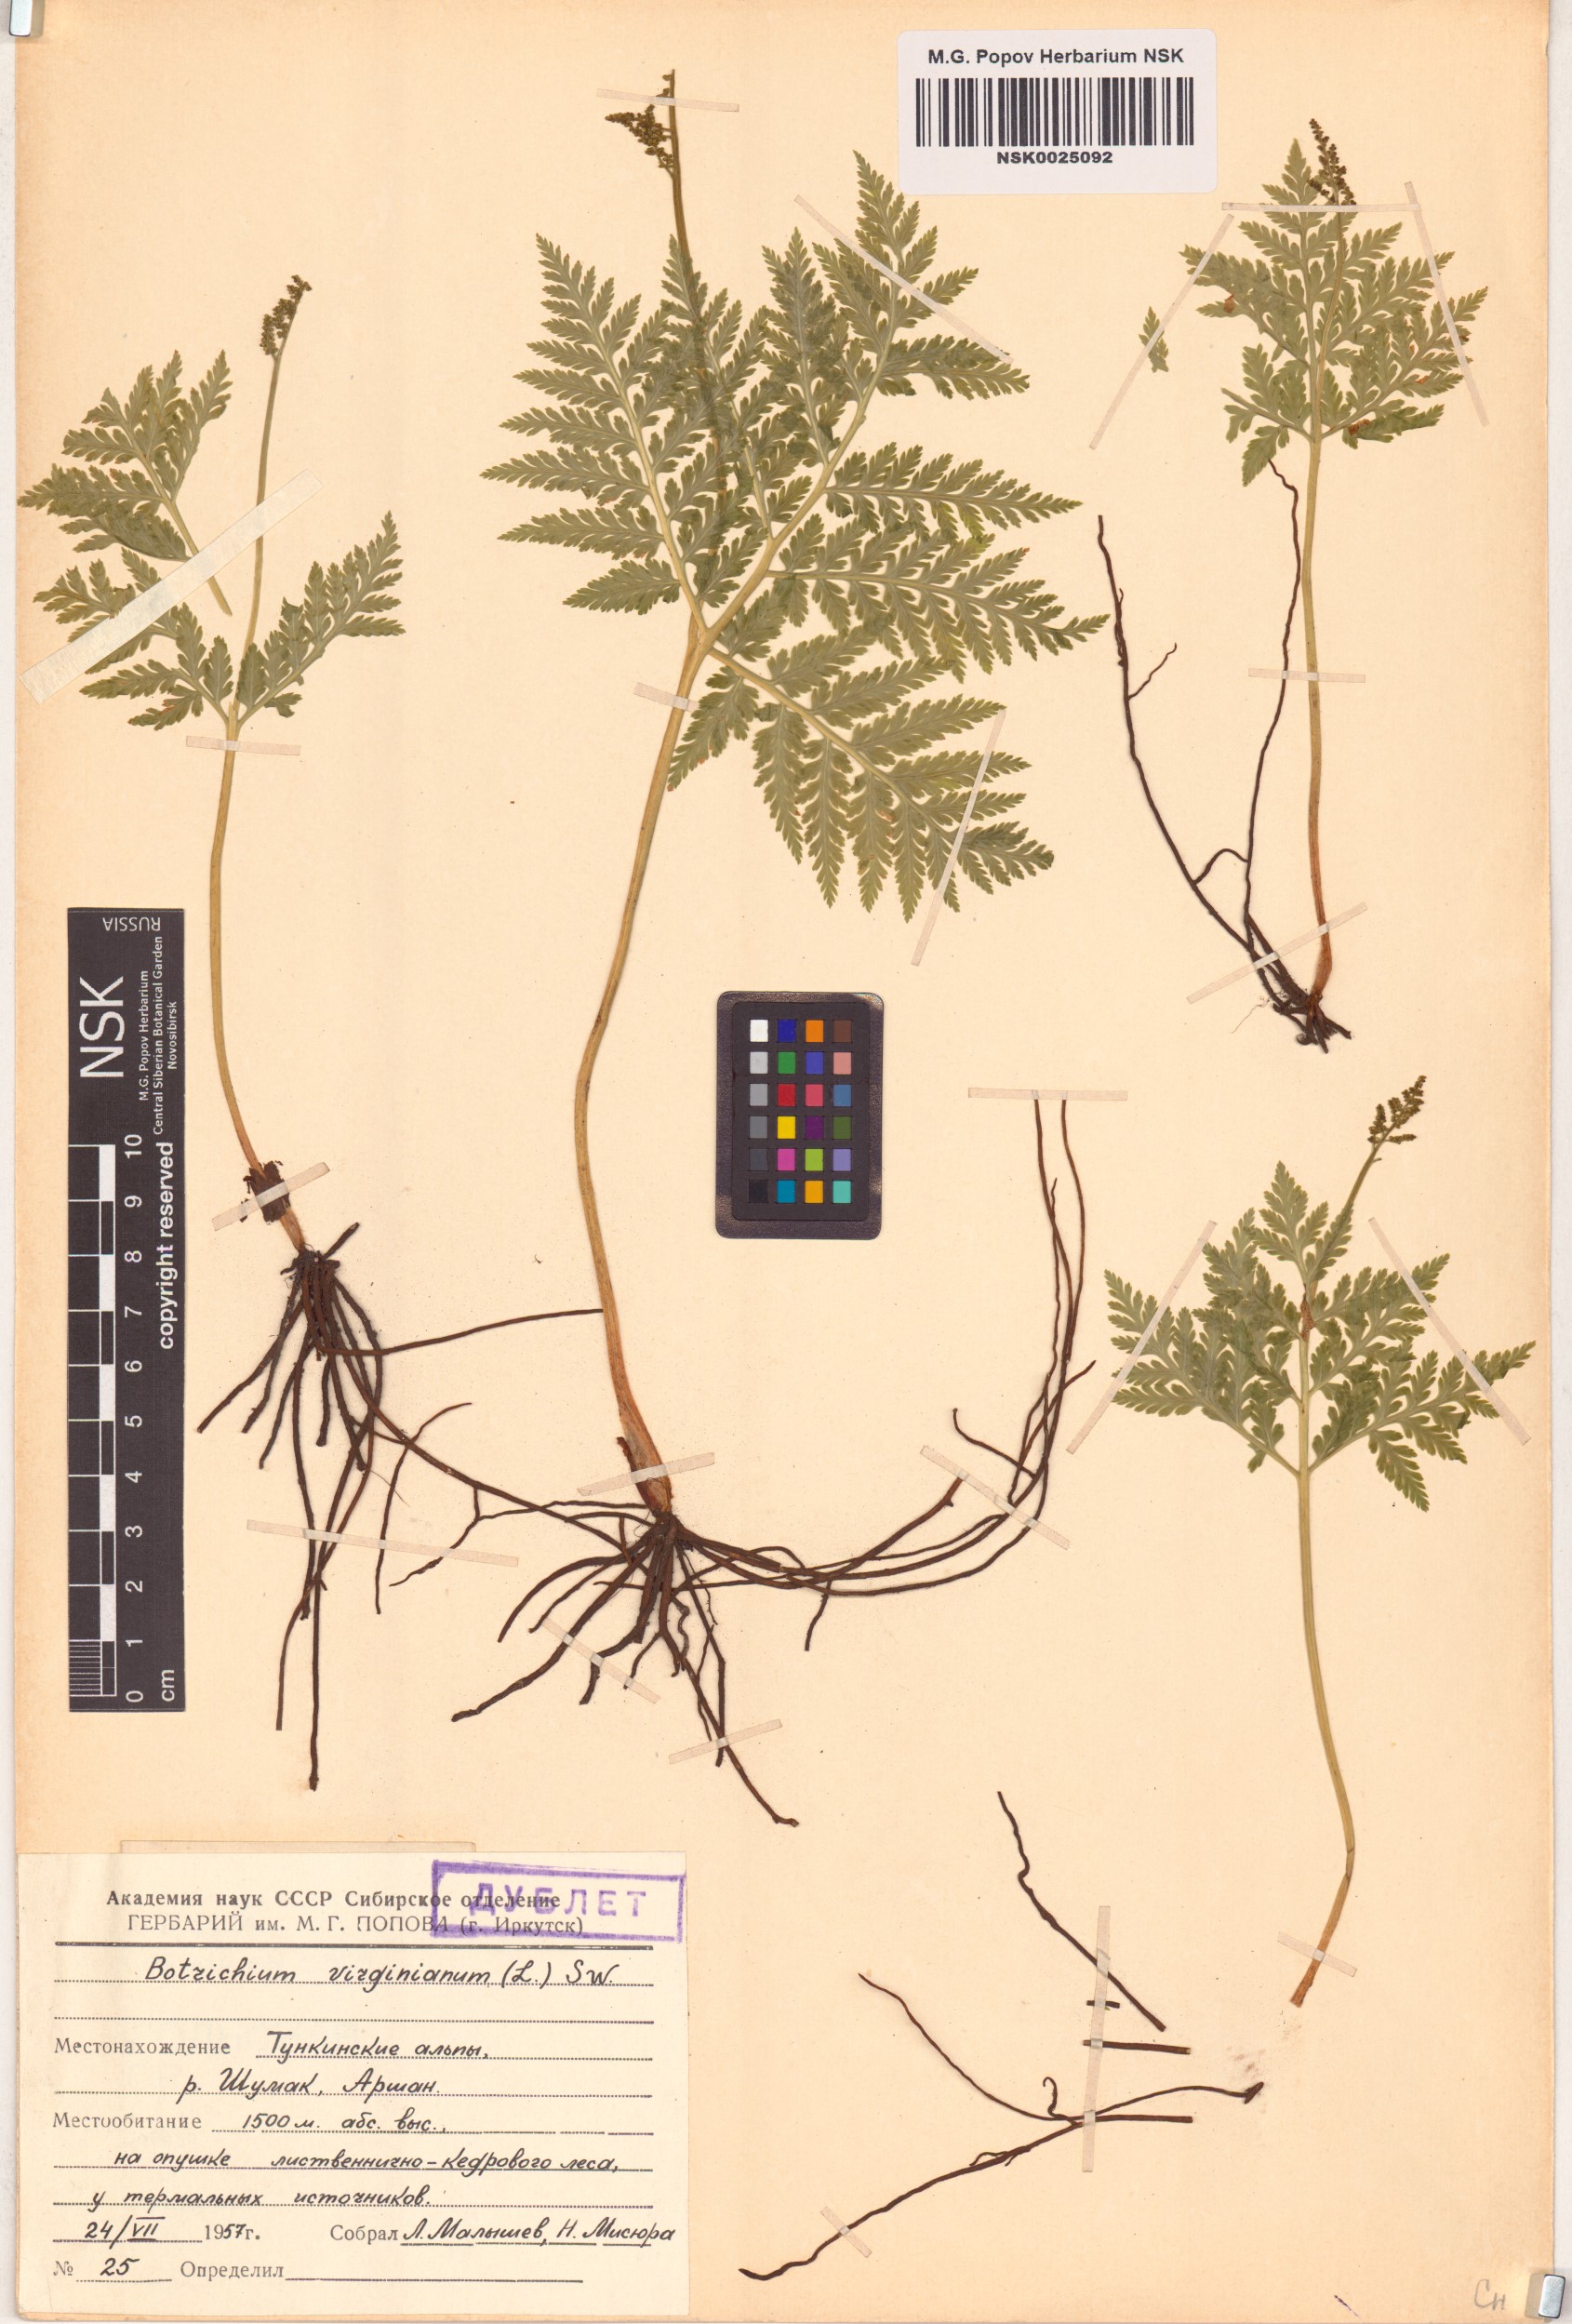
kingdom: Plantae
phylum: Tracheophyta
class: Polypodiopsida
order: Ophioglossales
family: Ophioglossaceae
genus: Botrypus
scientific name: Botrypus virginianus
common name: Common grapefern
